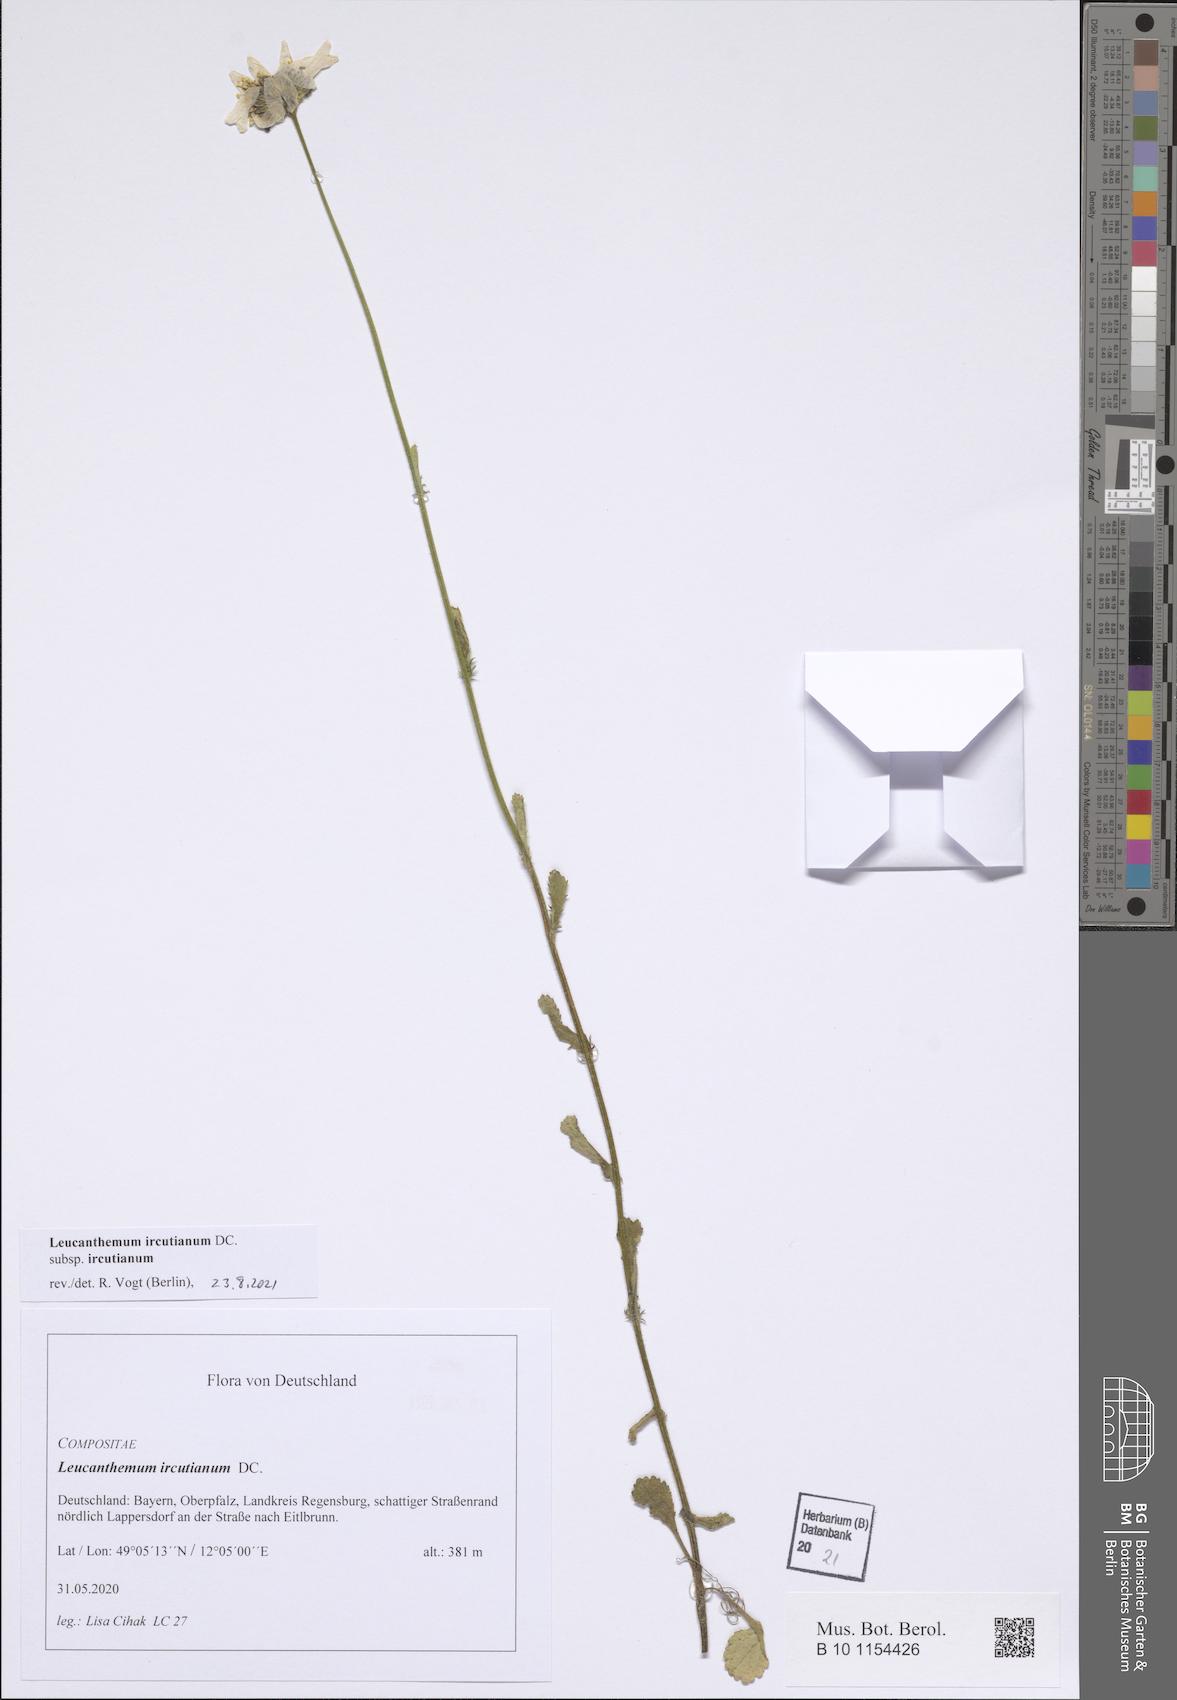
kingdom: Plantae
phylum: Tracheophyta
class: Magnoliopsida
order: Asterales
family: Asteraceae
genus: Leucanthemum
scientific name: Leucanthemum ircutianum
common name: Daisy
